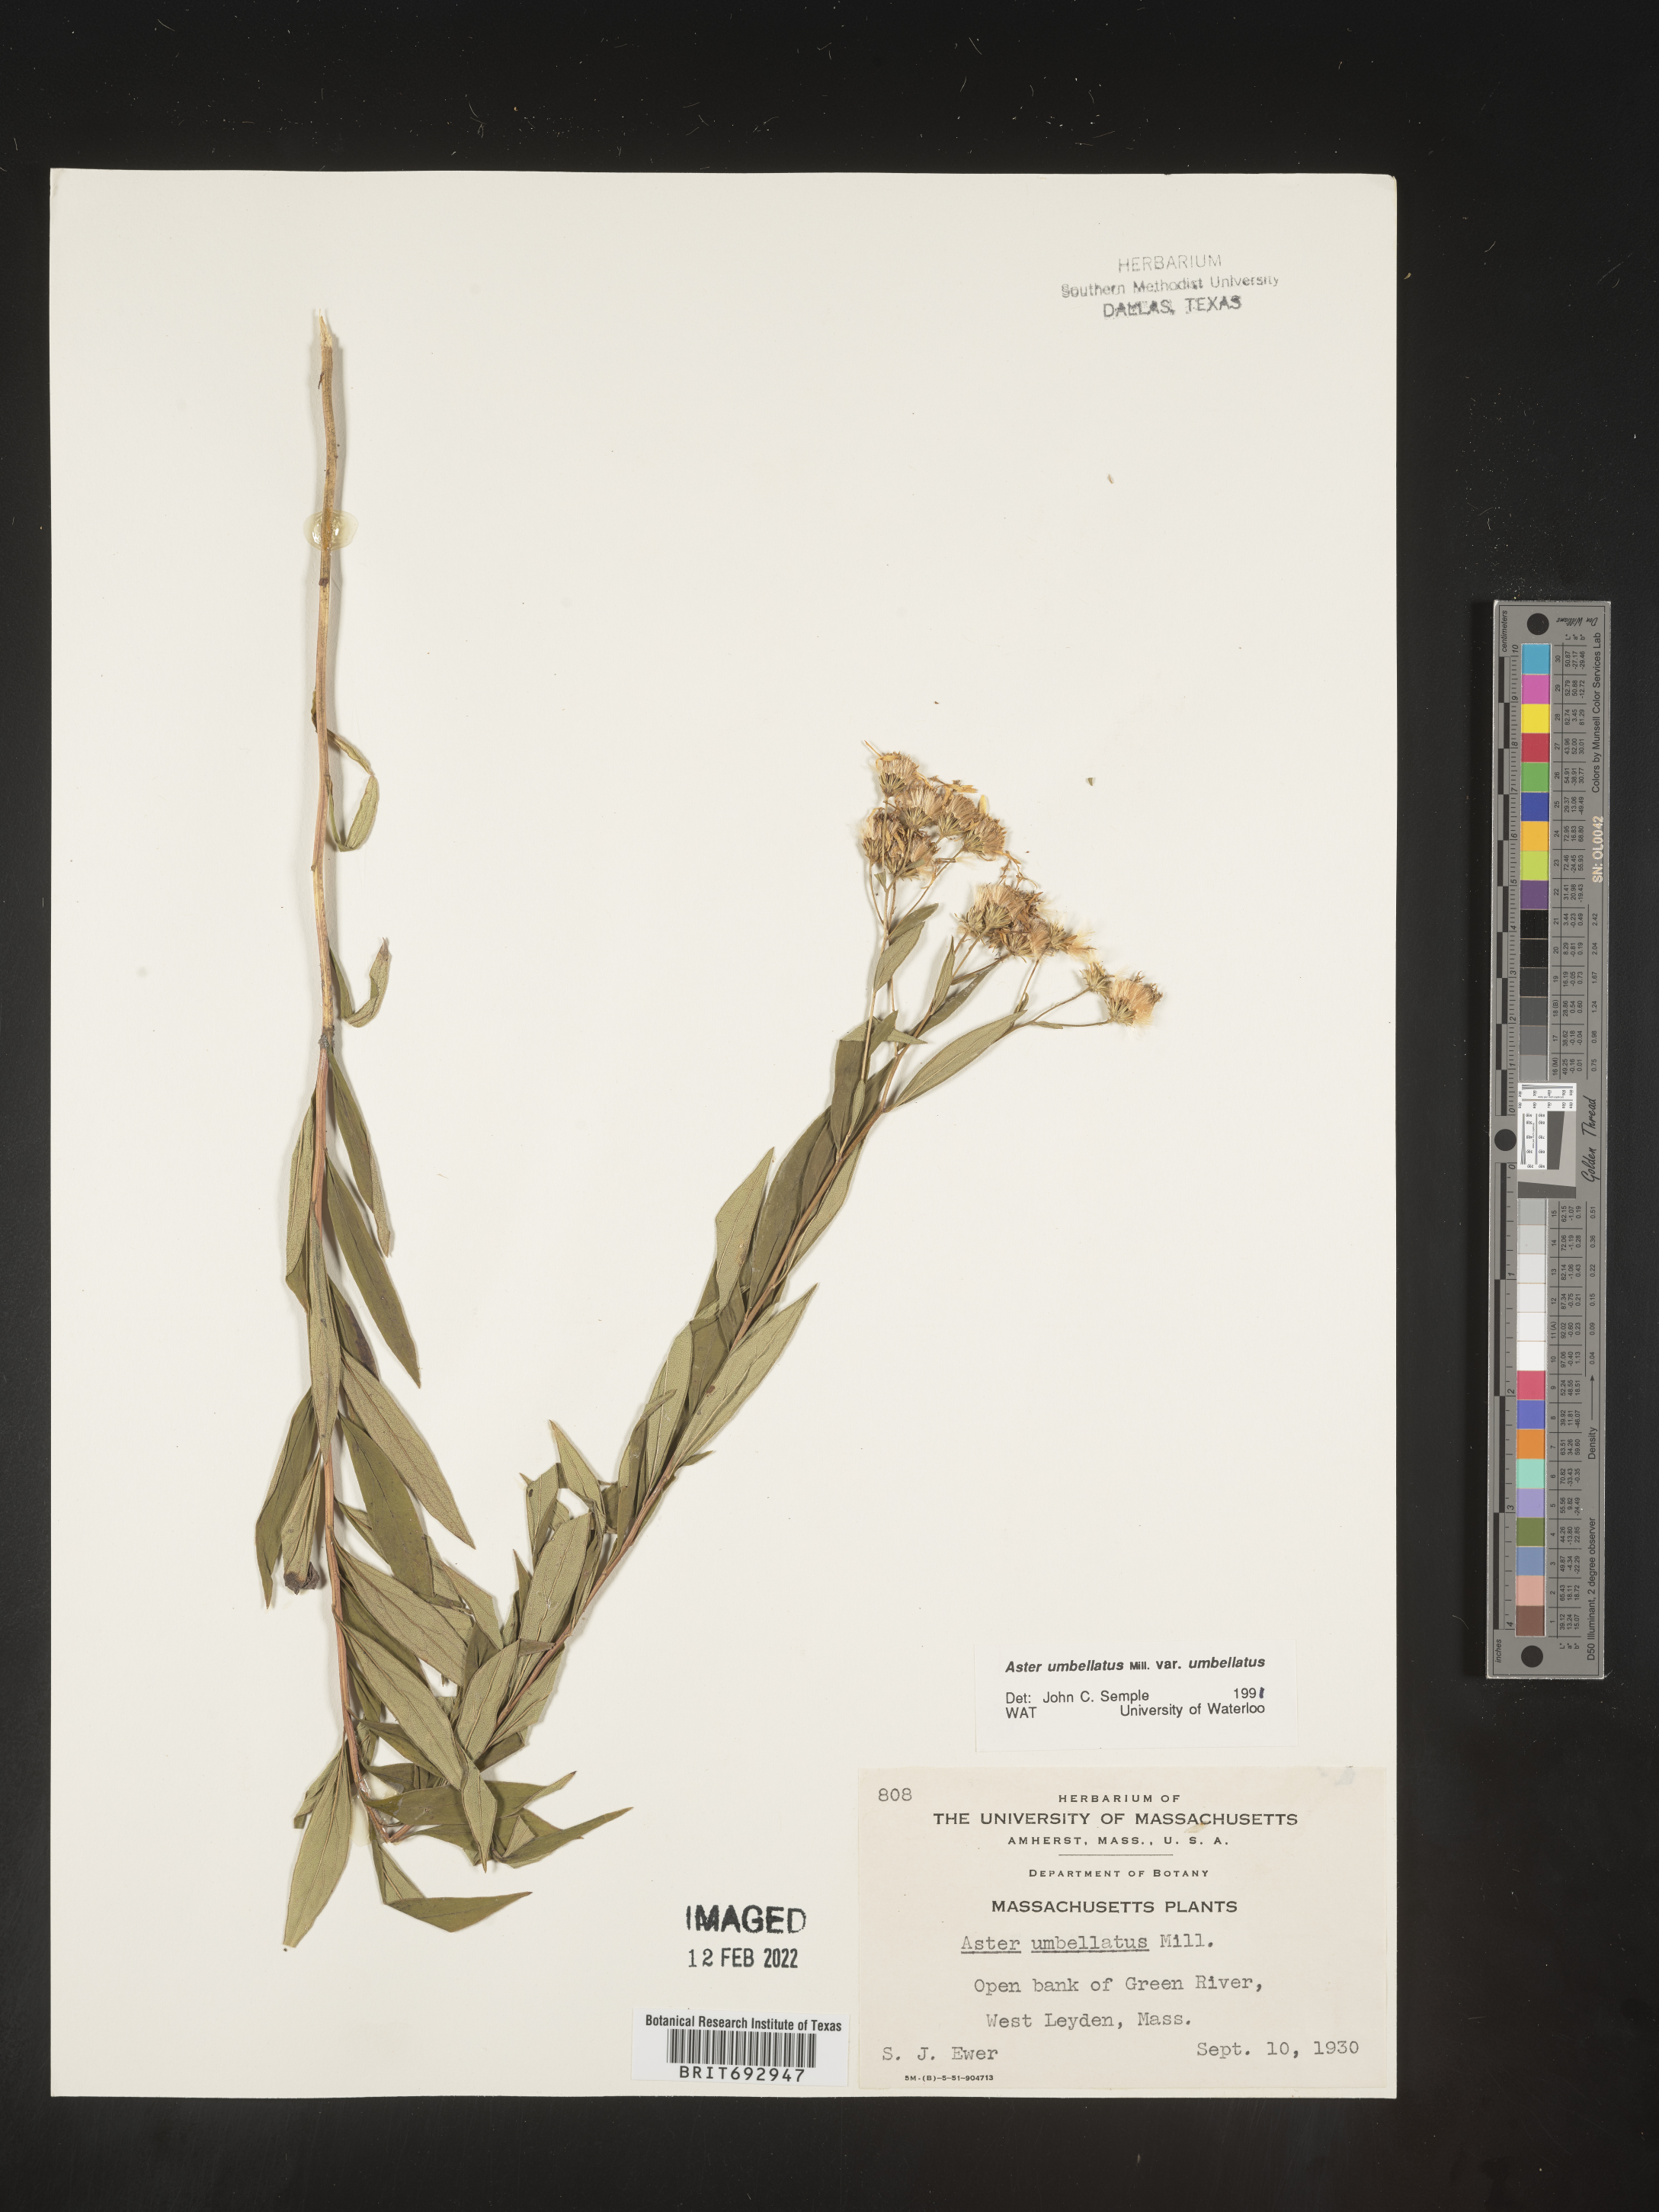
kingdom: Plantae
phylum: Tracheophyta
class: Magnoliopsida
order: Asterales
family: Asteraceae
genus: Doellingeria
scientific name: Doellingeria umbellata
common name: Flat-top white aster
